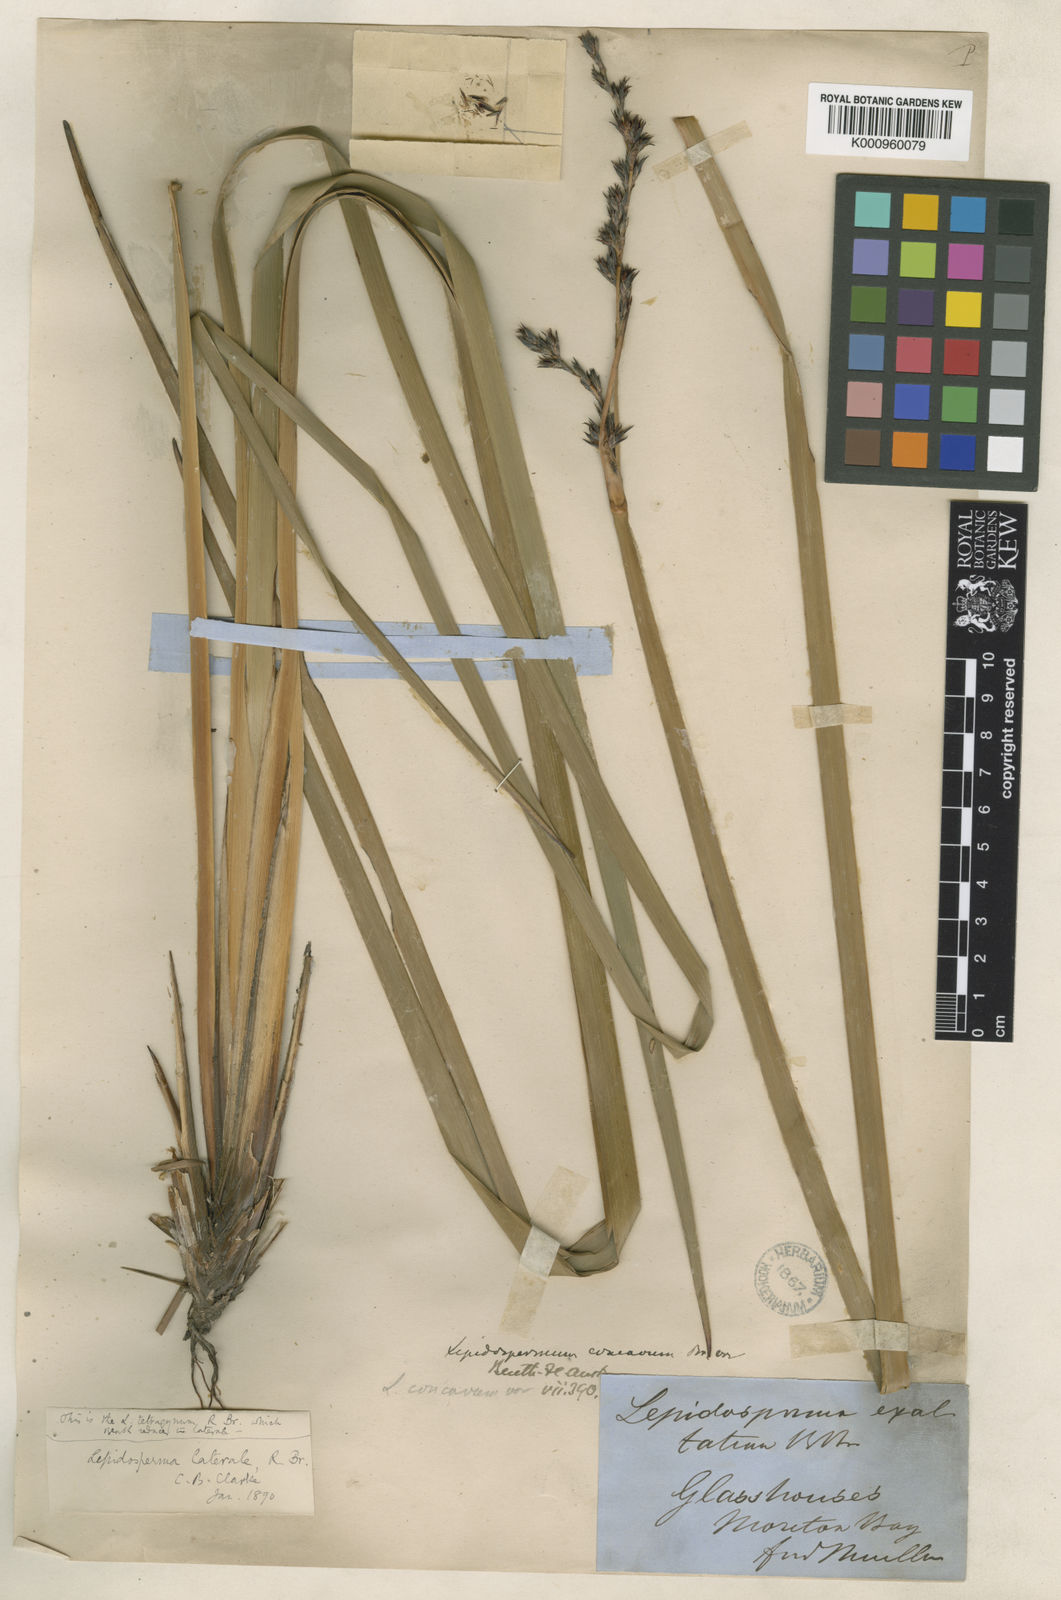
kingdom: Plantae
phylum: Tracheophyta
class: Liliopsida
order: Poales
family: Cyperaceae
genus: Lepidosperma
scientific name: Lepidosperma laterale
